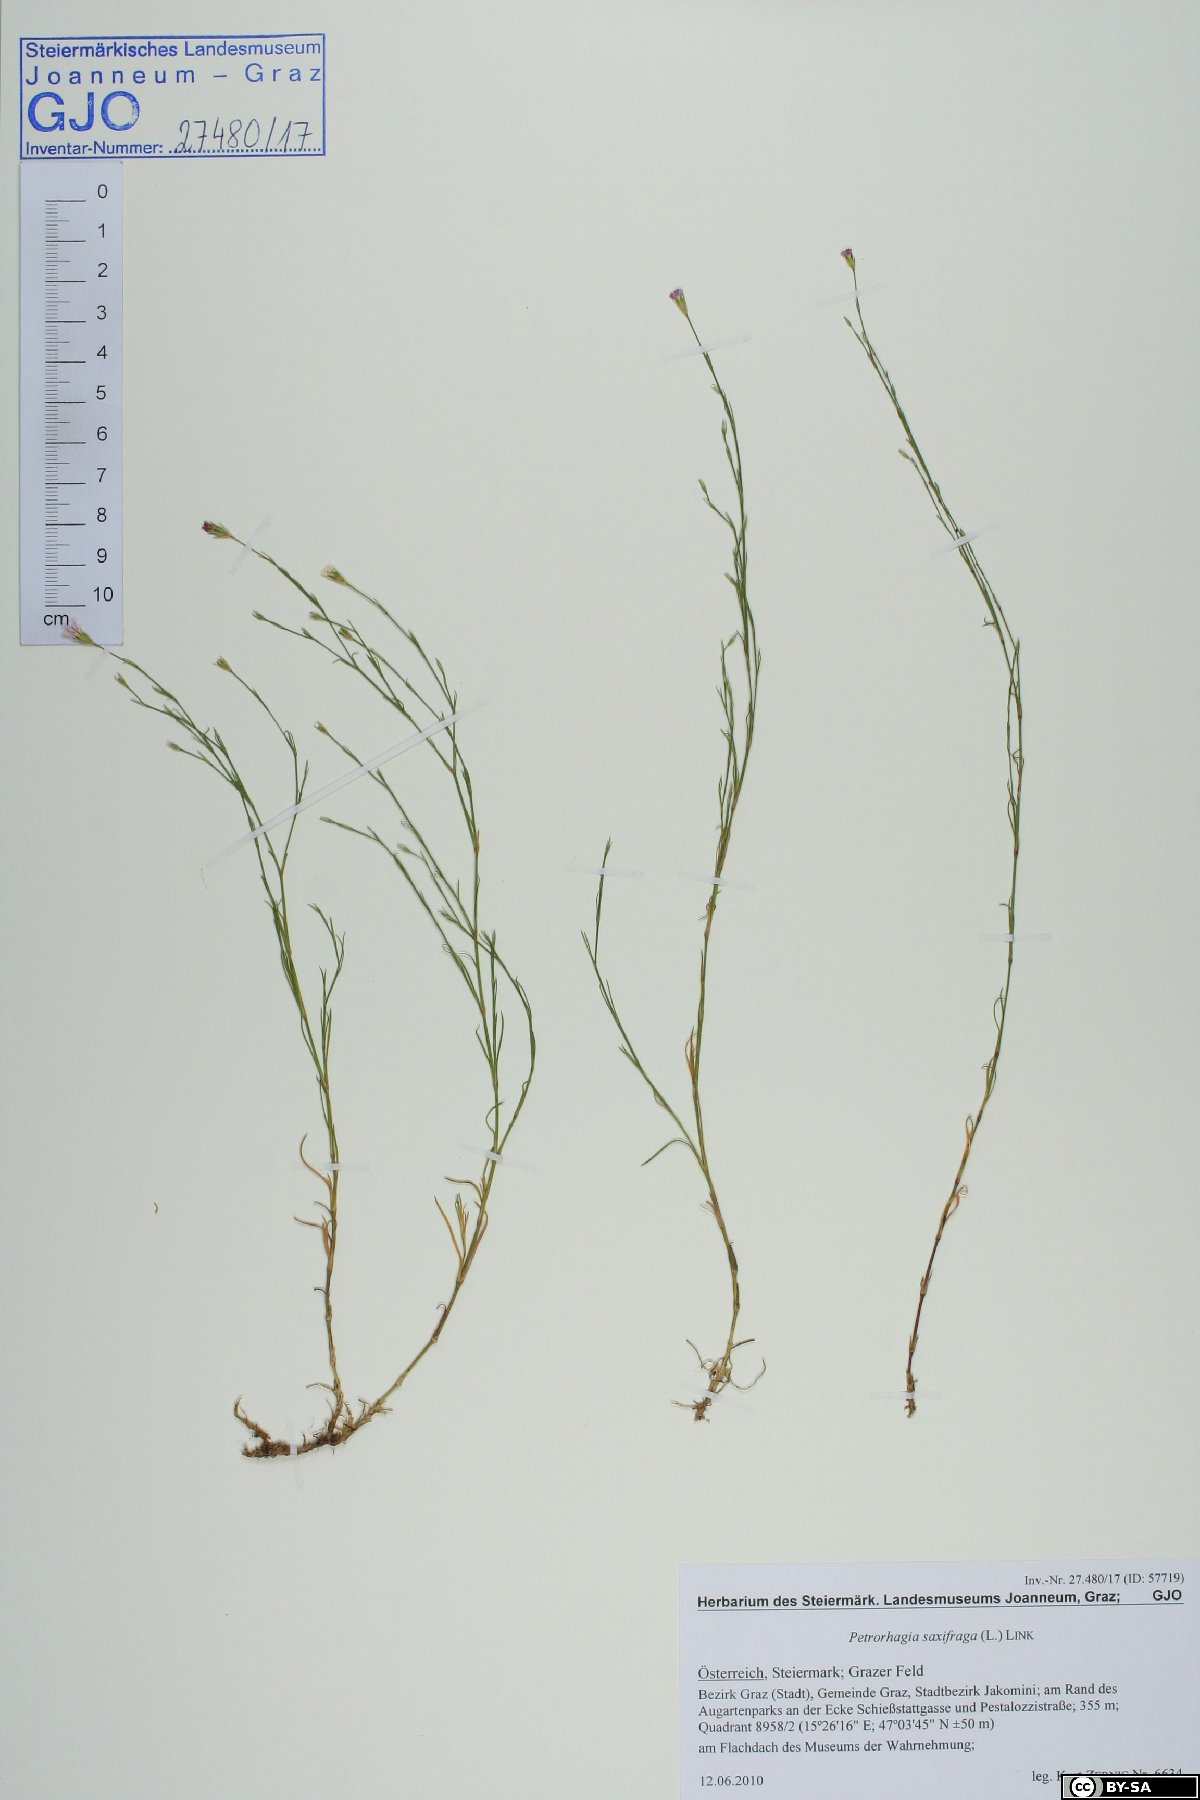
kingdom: Plantae
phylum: Tracheophyta
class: Magnoliopsida
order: Caryophyllales
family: Caryophyllaceae
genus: Petrorhagia
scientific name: Petrorhagia saxifraga
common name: Tunicflower
